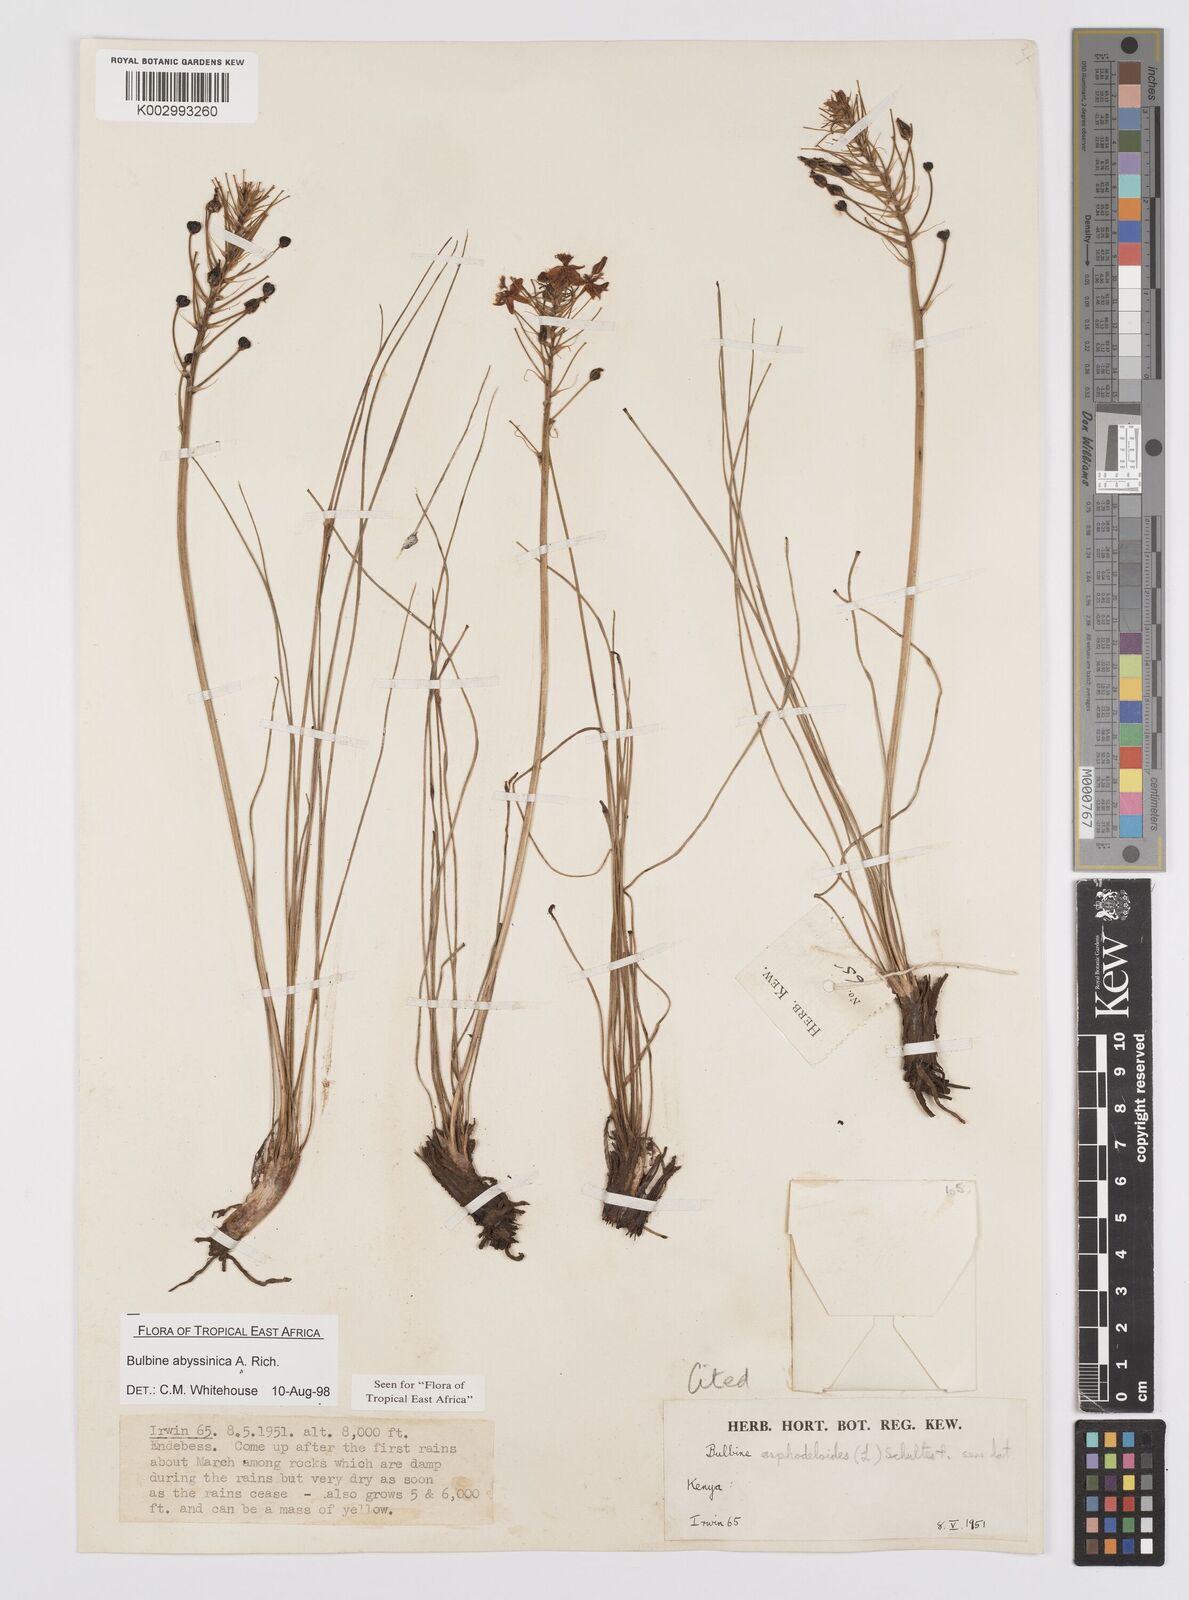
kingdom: Plantae
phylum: Tracheophyta
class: Liliopsida
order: Asparagales
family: Asphodelaceae
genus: Bulbine
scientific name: Bulbine abyssinica
